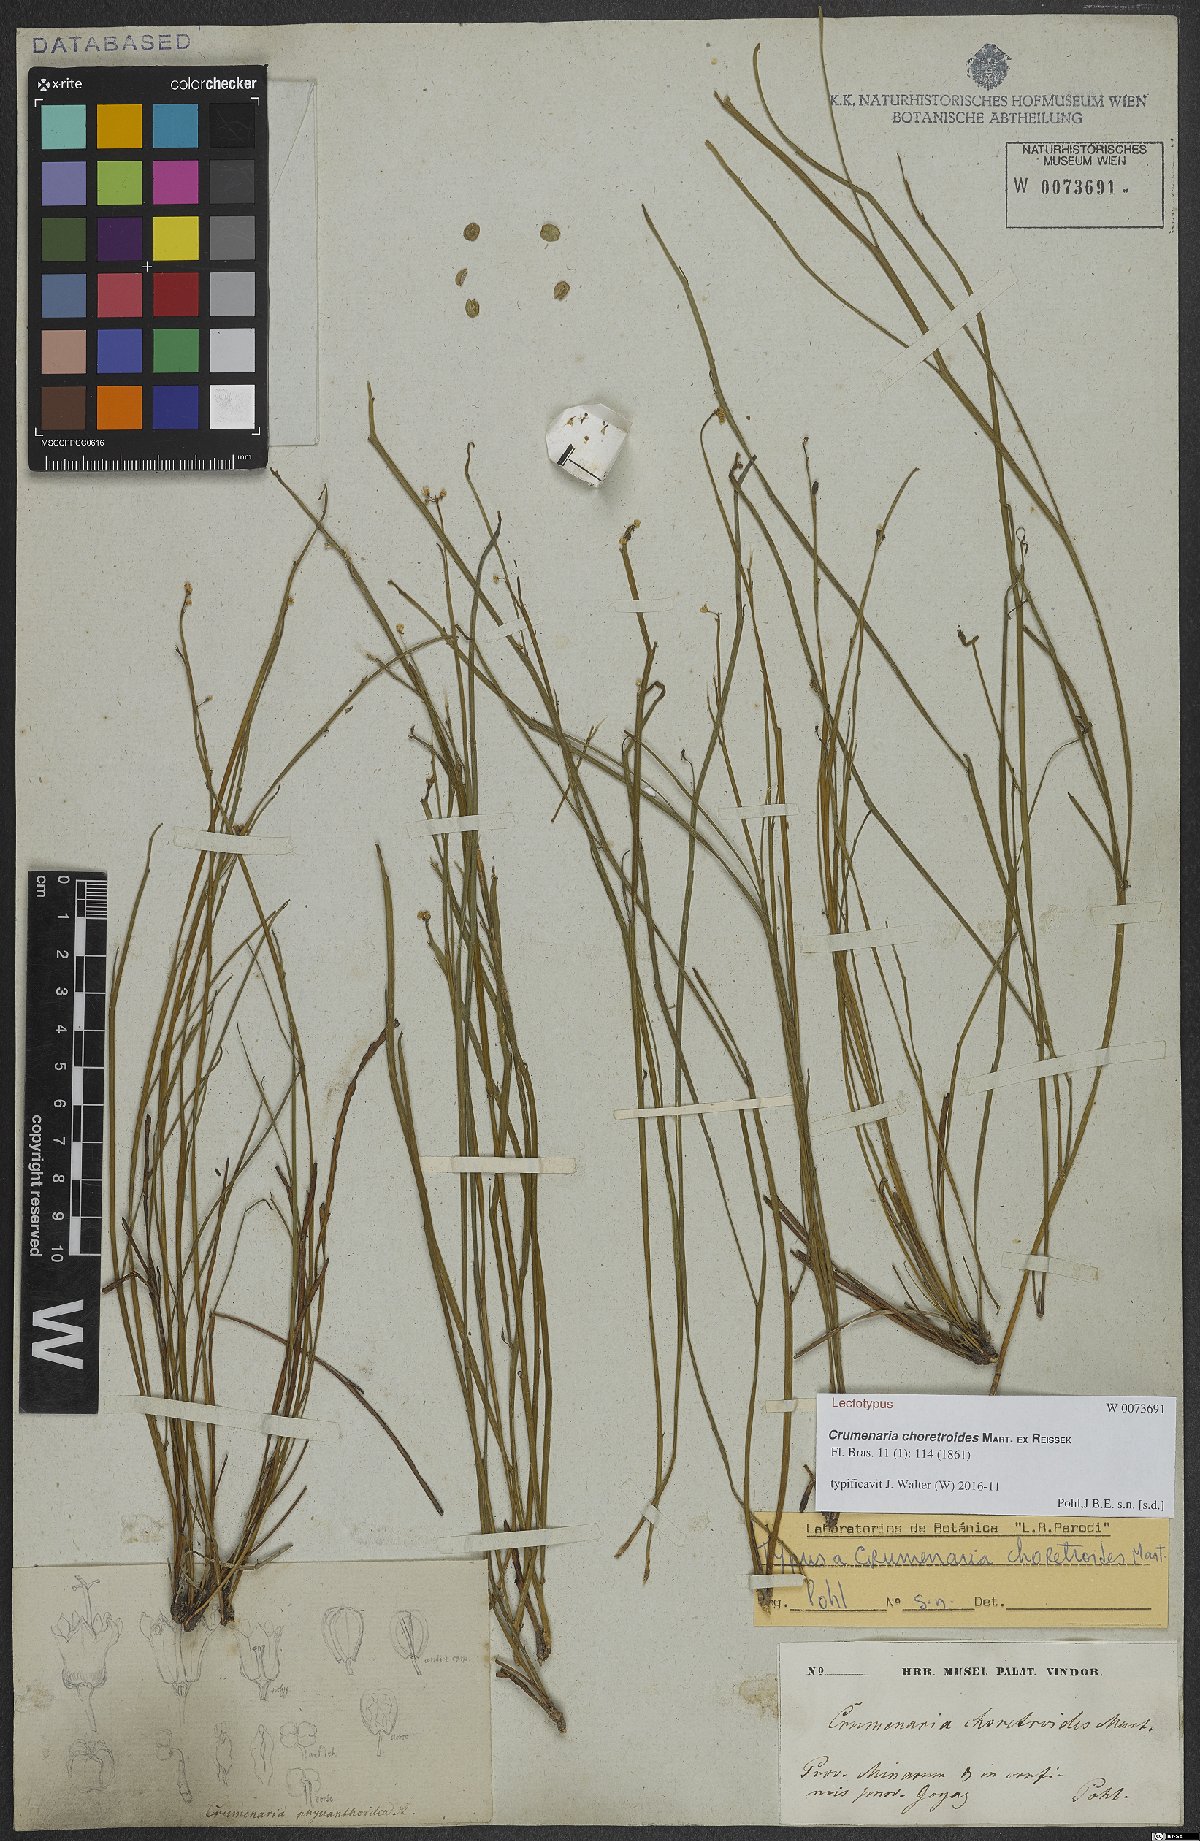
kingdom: Plantae
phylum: Tracheophyta
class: Magnoliopsida
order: Rosales
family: Rhamnaceae
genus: Crumenaria
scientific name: Crumenaria choretroides
